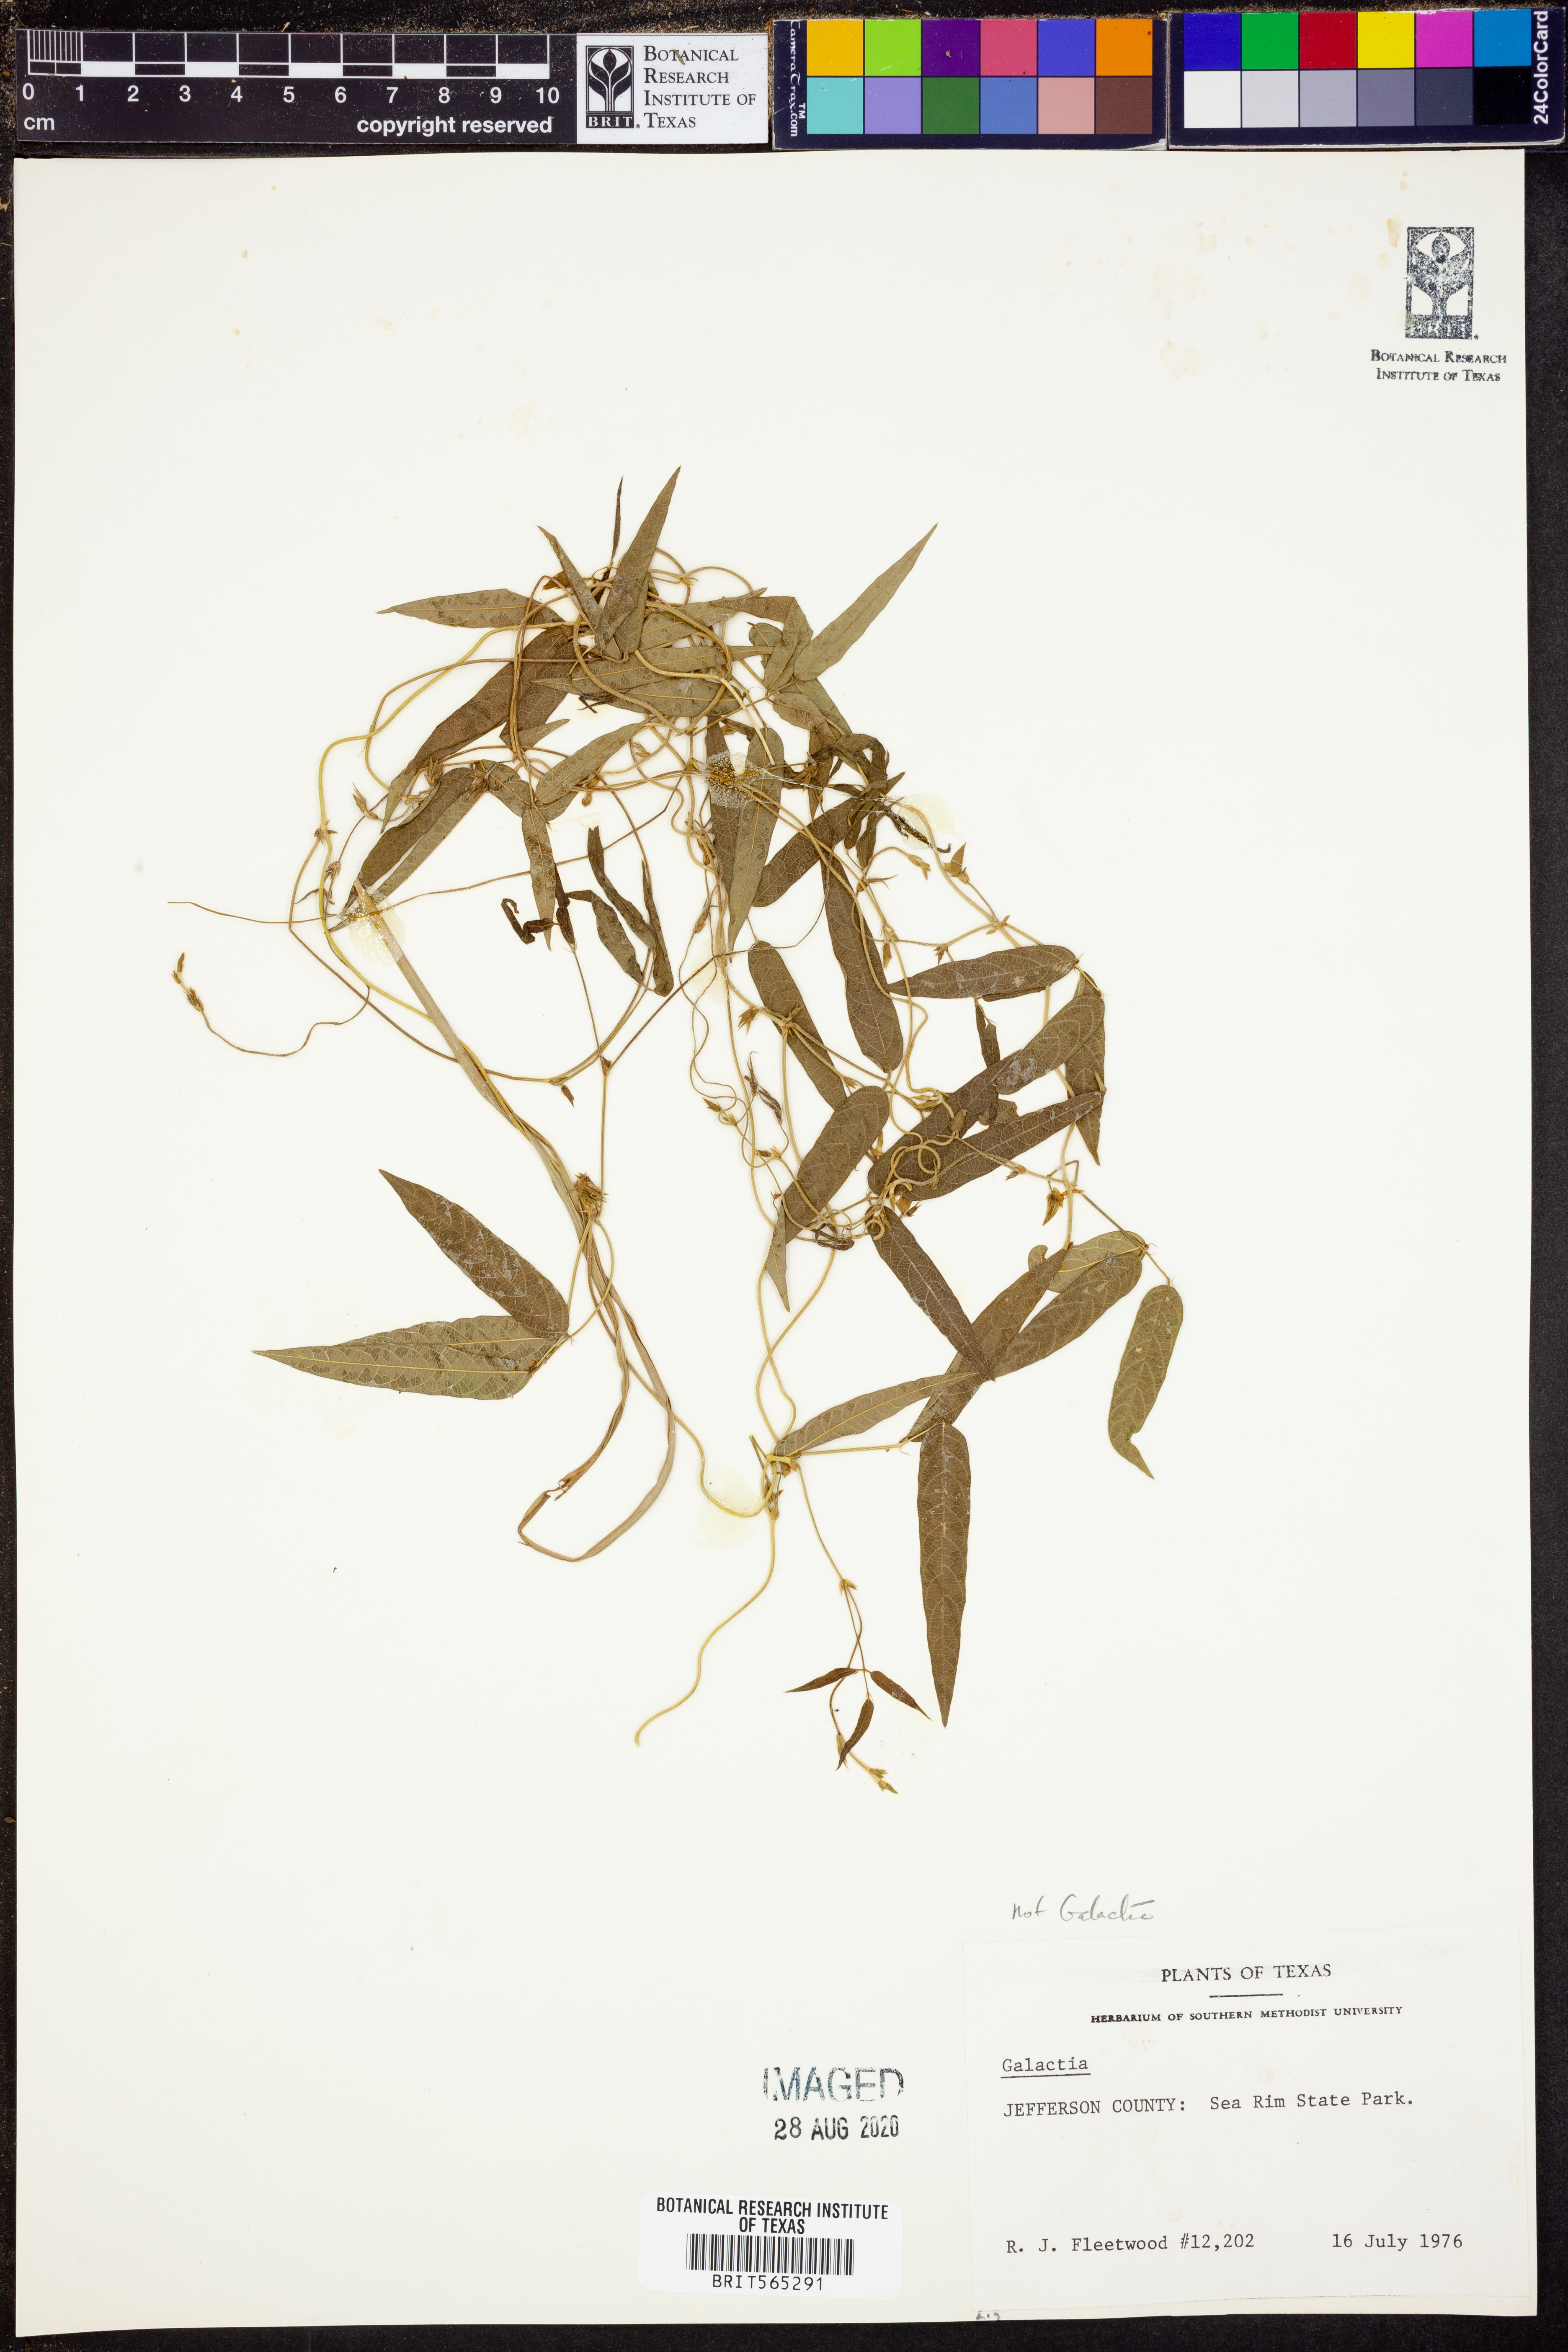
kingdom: Plantae
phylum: Tracheophyta
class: Magnoliopsida
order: Fabales
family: Fabaceae
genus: Galactia
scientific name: Galactia
